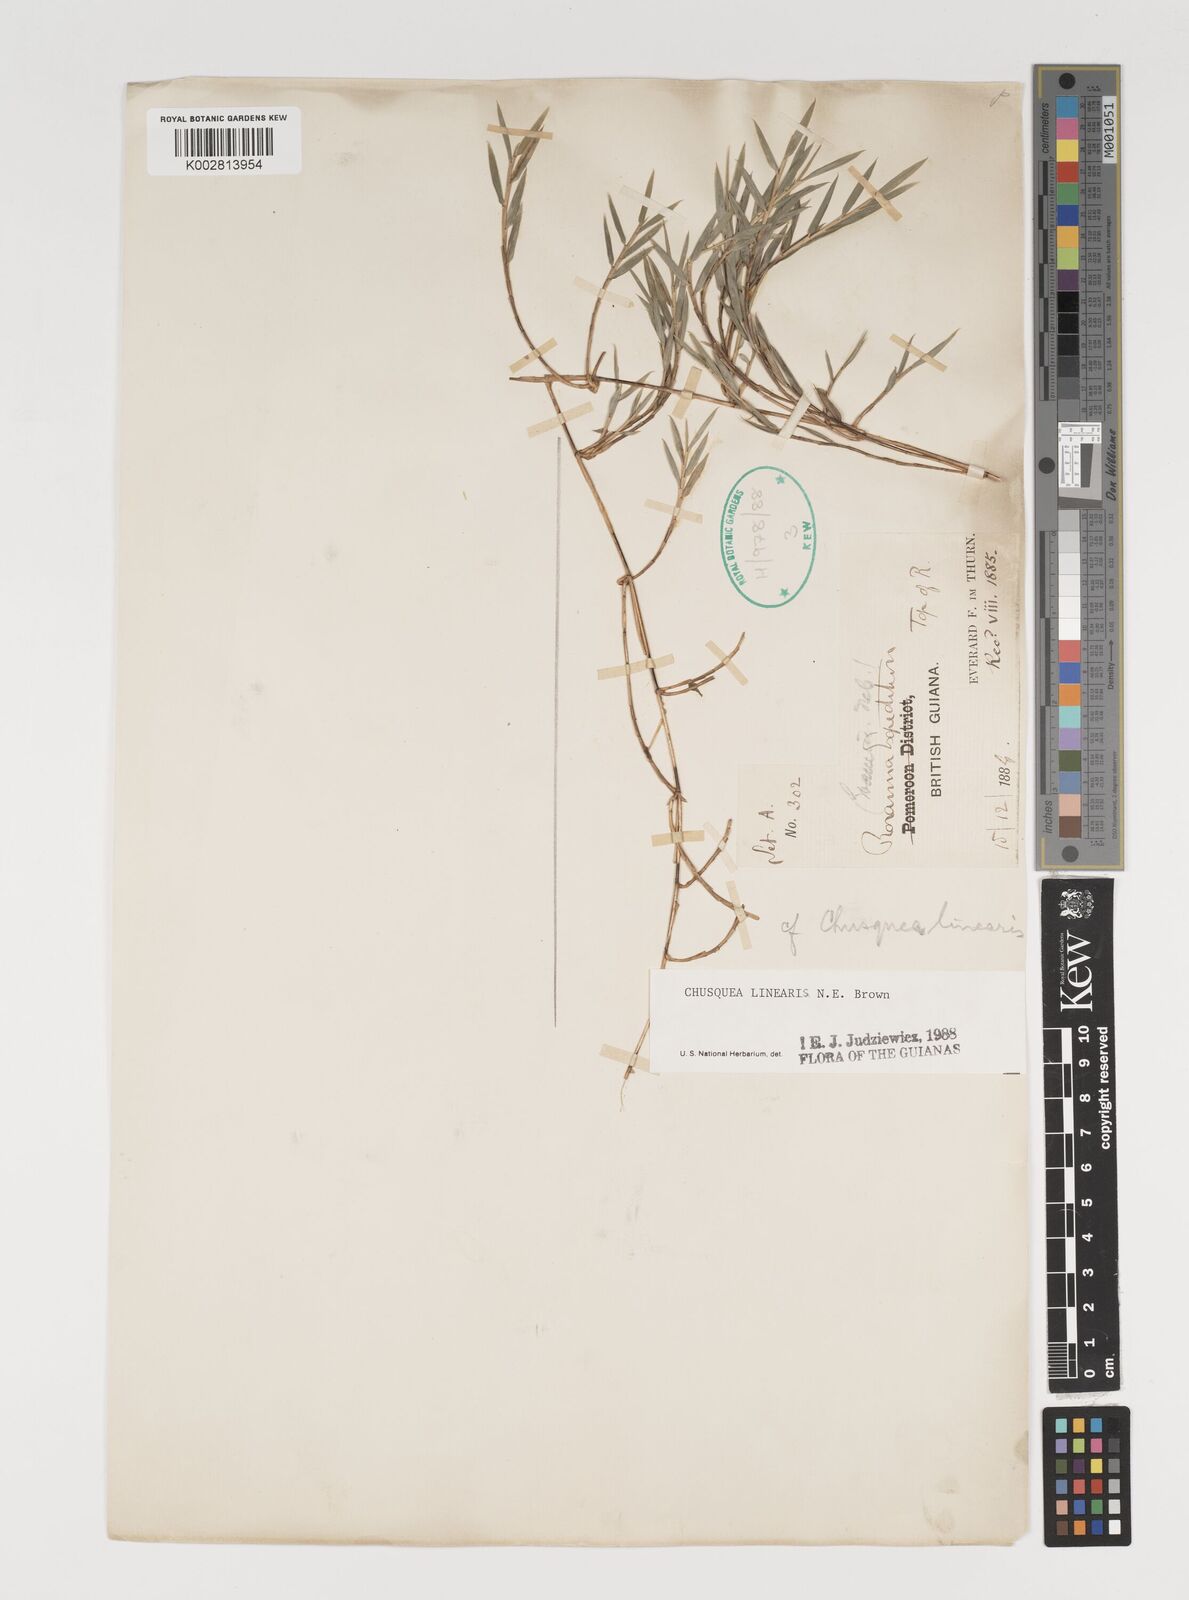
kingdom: Plantae
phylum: Tracheophyta
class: Liliopsida
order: Poales
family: Poaceae
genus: Chusquea
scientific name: Chusquea linearis
